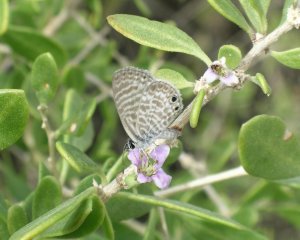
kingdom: Animalia
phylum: Arthropoda
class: Insecta
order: Lepidoptera
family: Lycaenidae
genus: Leptotes
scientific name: Leptotes marina
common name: Marine Blue
